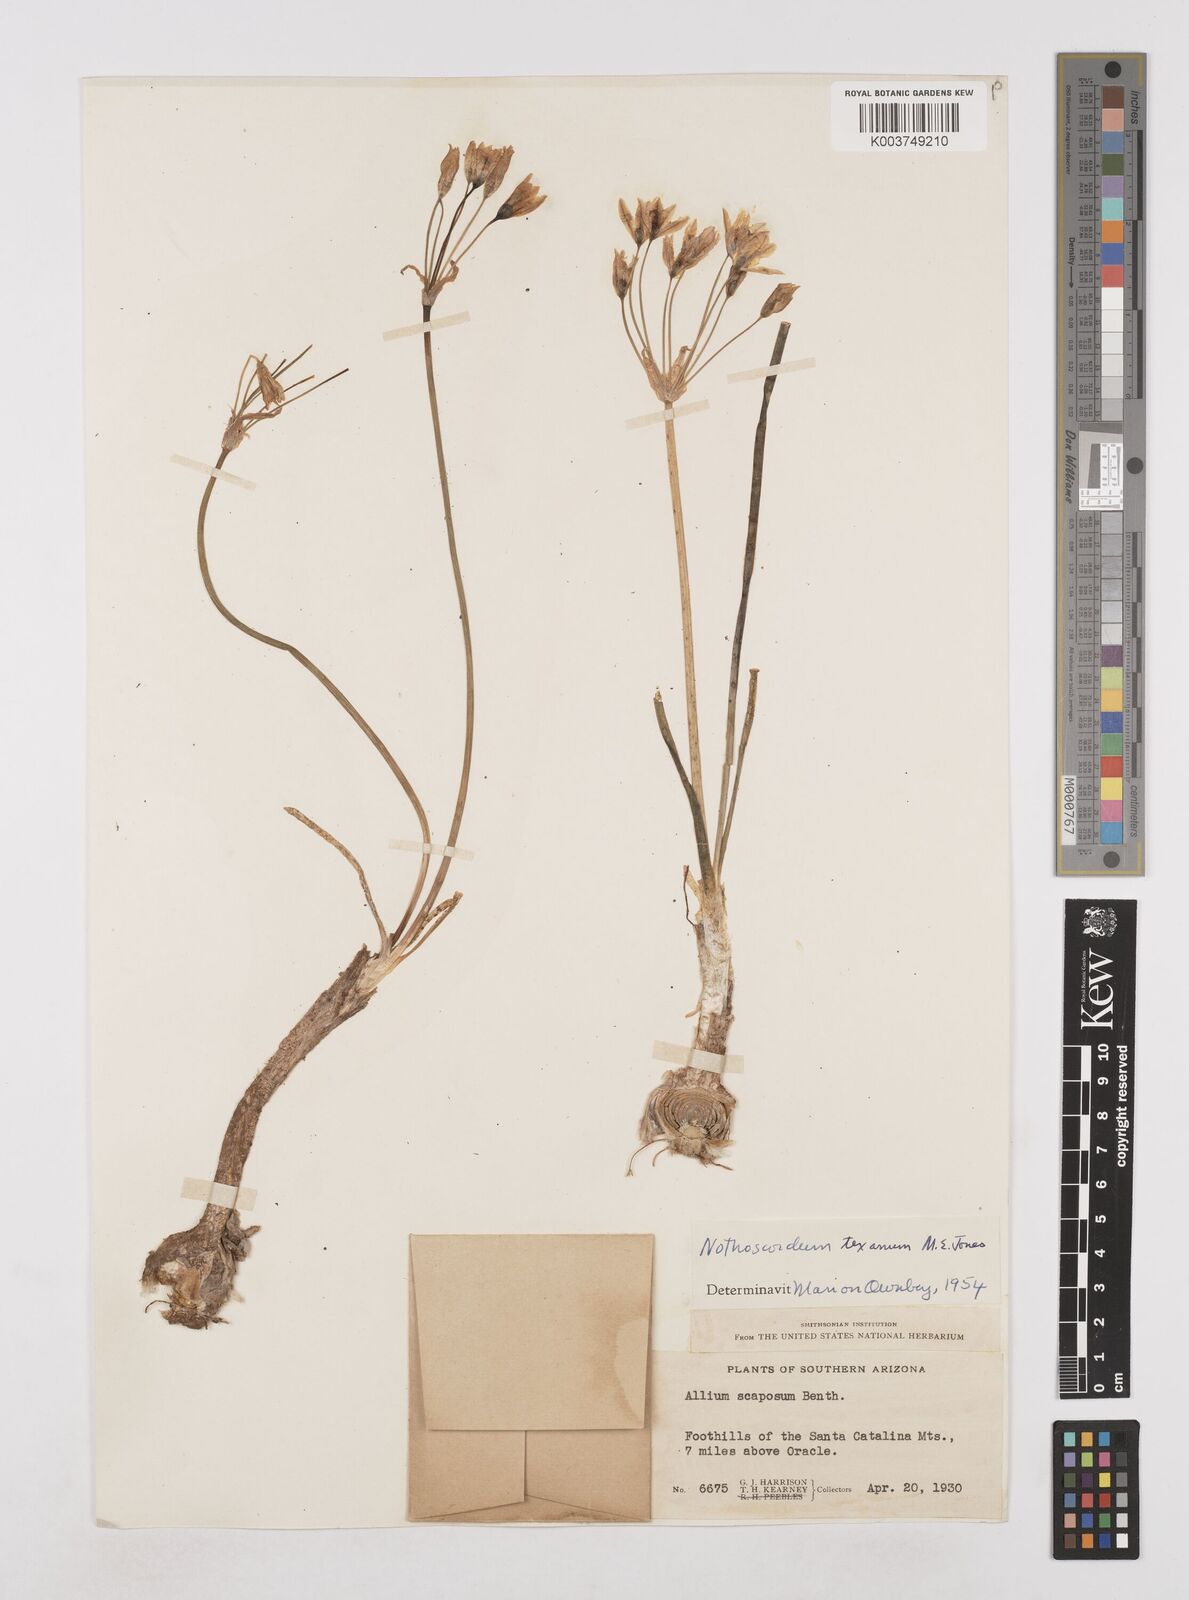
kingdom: Plantae
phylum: Tracheophyta
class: Liliopsida
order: Asparagales
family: Amaryllidaceae
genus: Nothoscordum
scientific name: Nothoscordum bivalve
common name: Crow-poison
